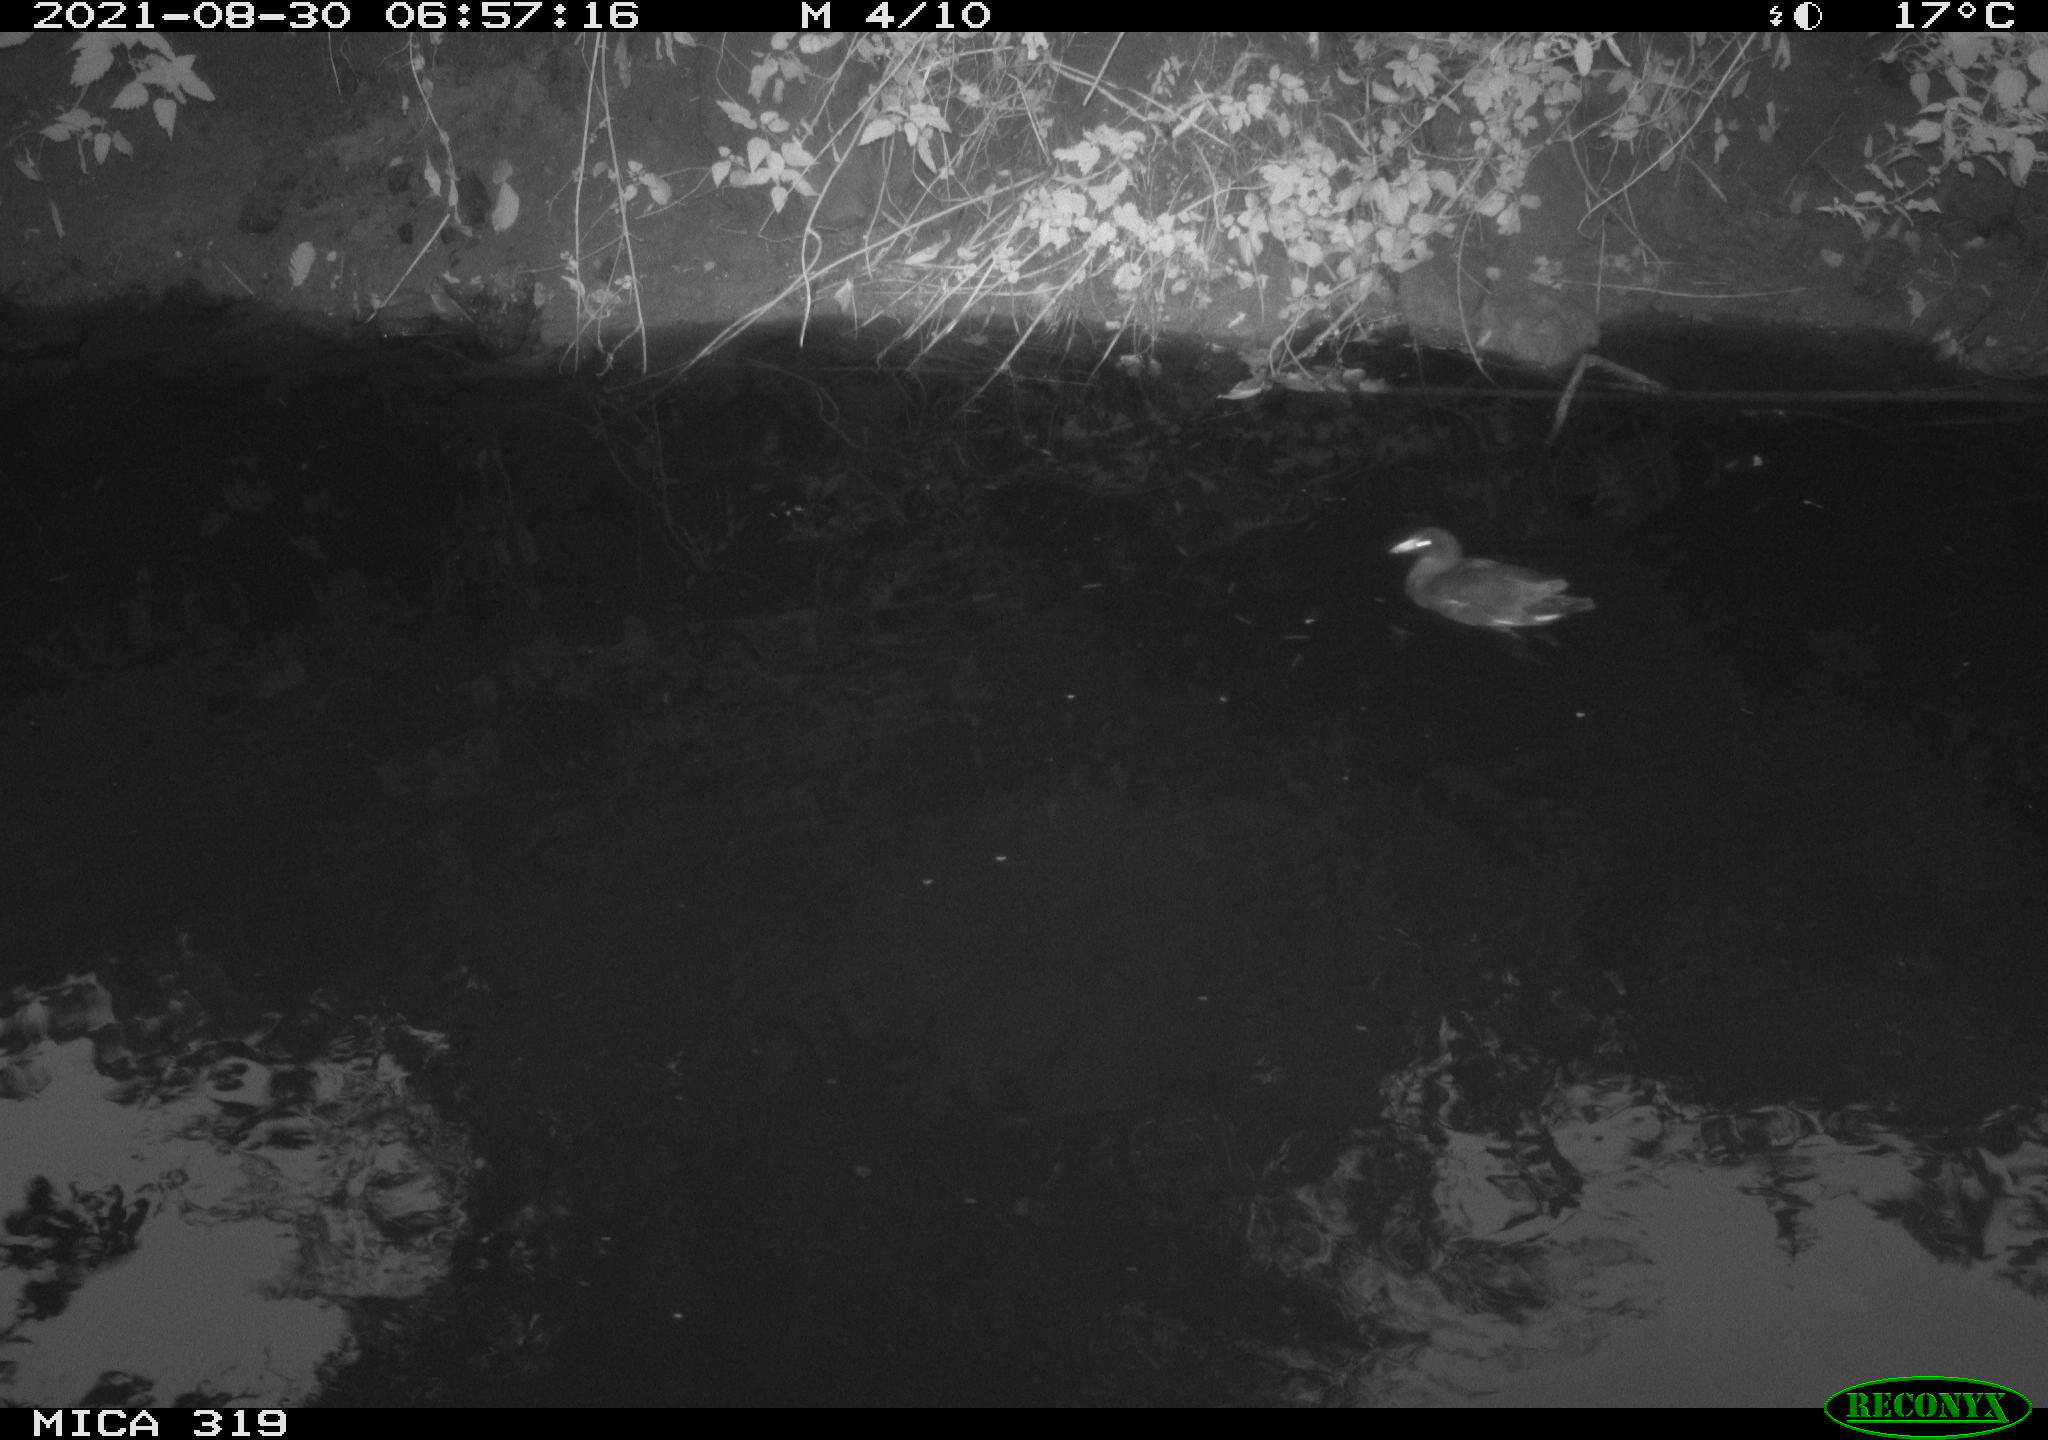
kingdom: Animalia
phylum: Chordata
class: Aves
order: Gruiformes
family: Rallidae
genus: Gallinula
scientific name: Gallinula chloropus
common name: Common moorhen
